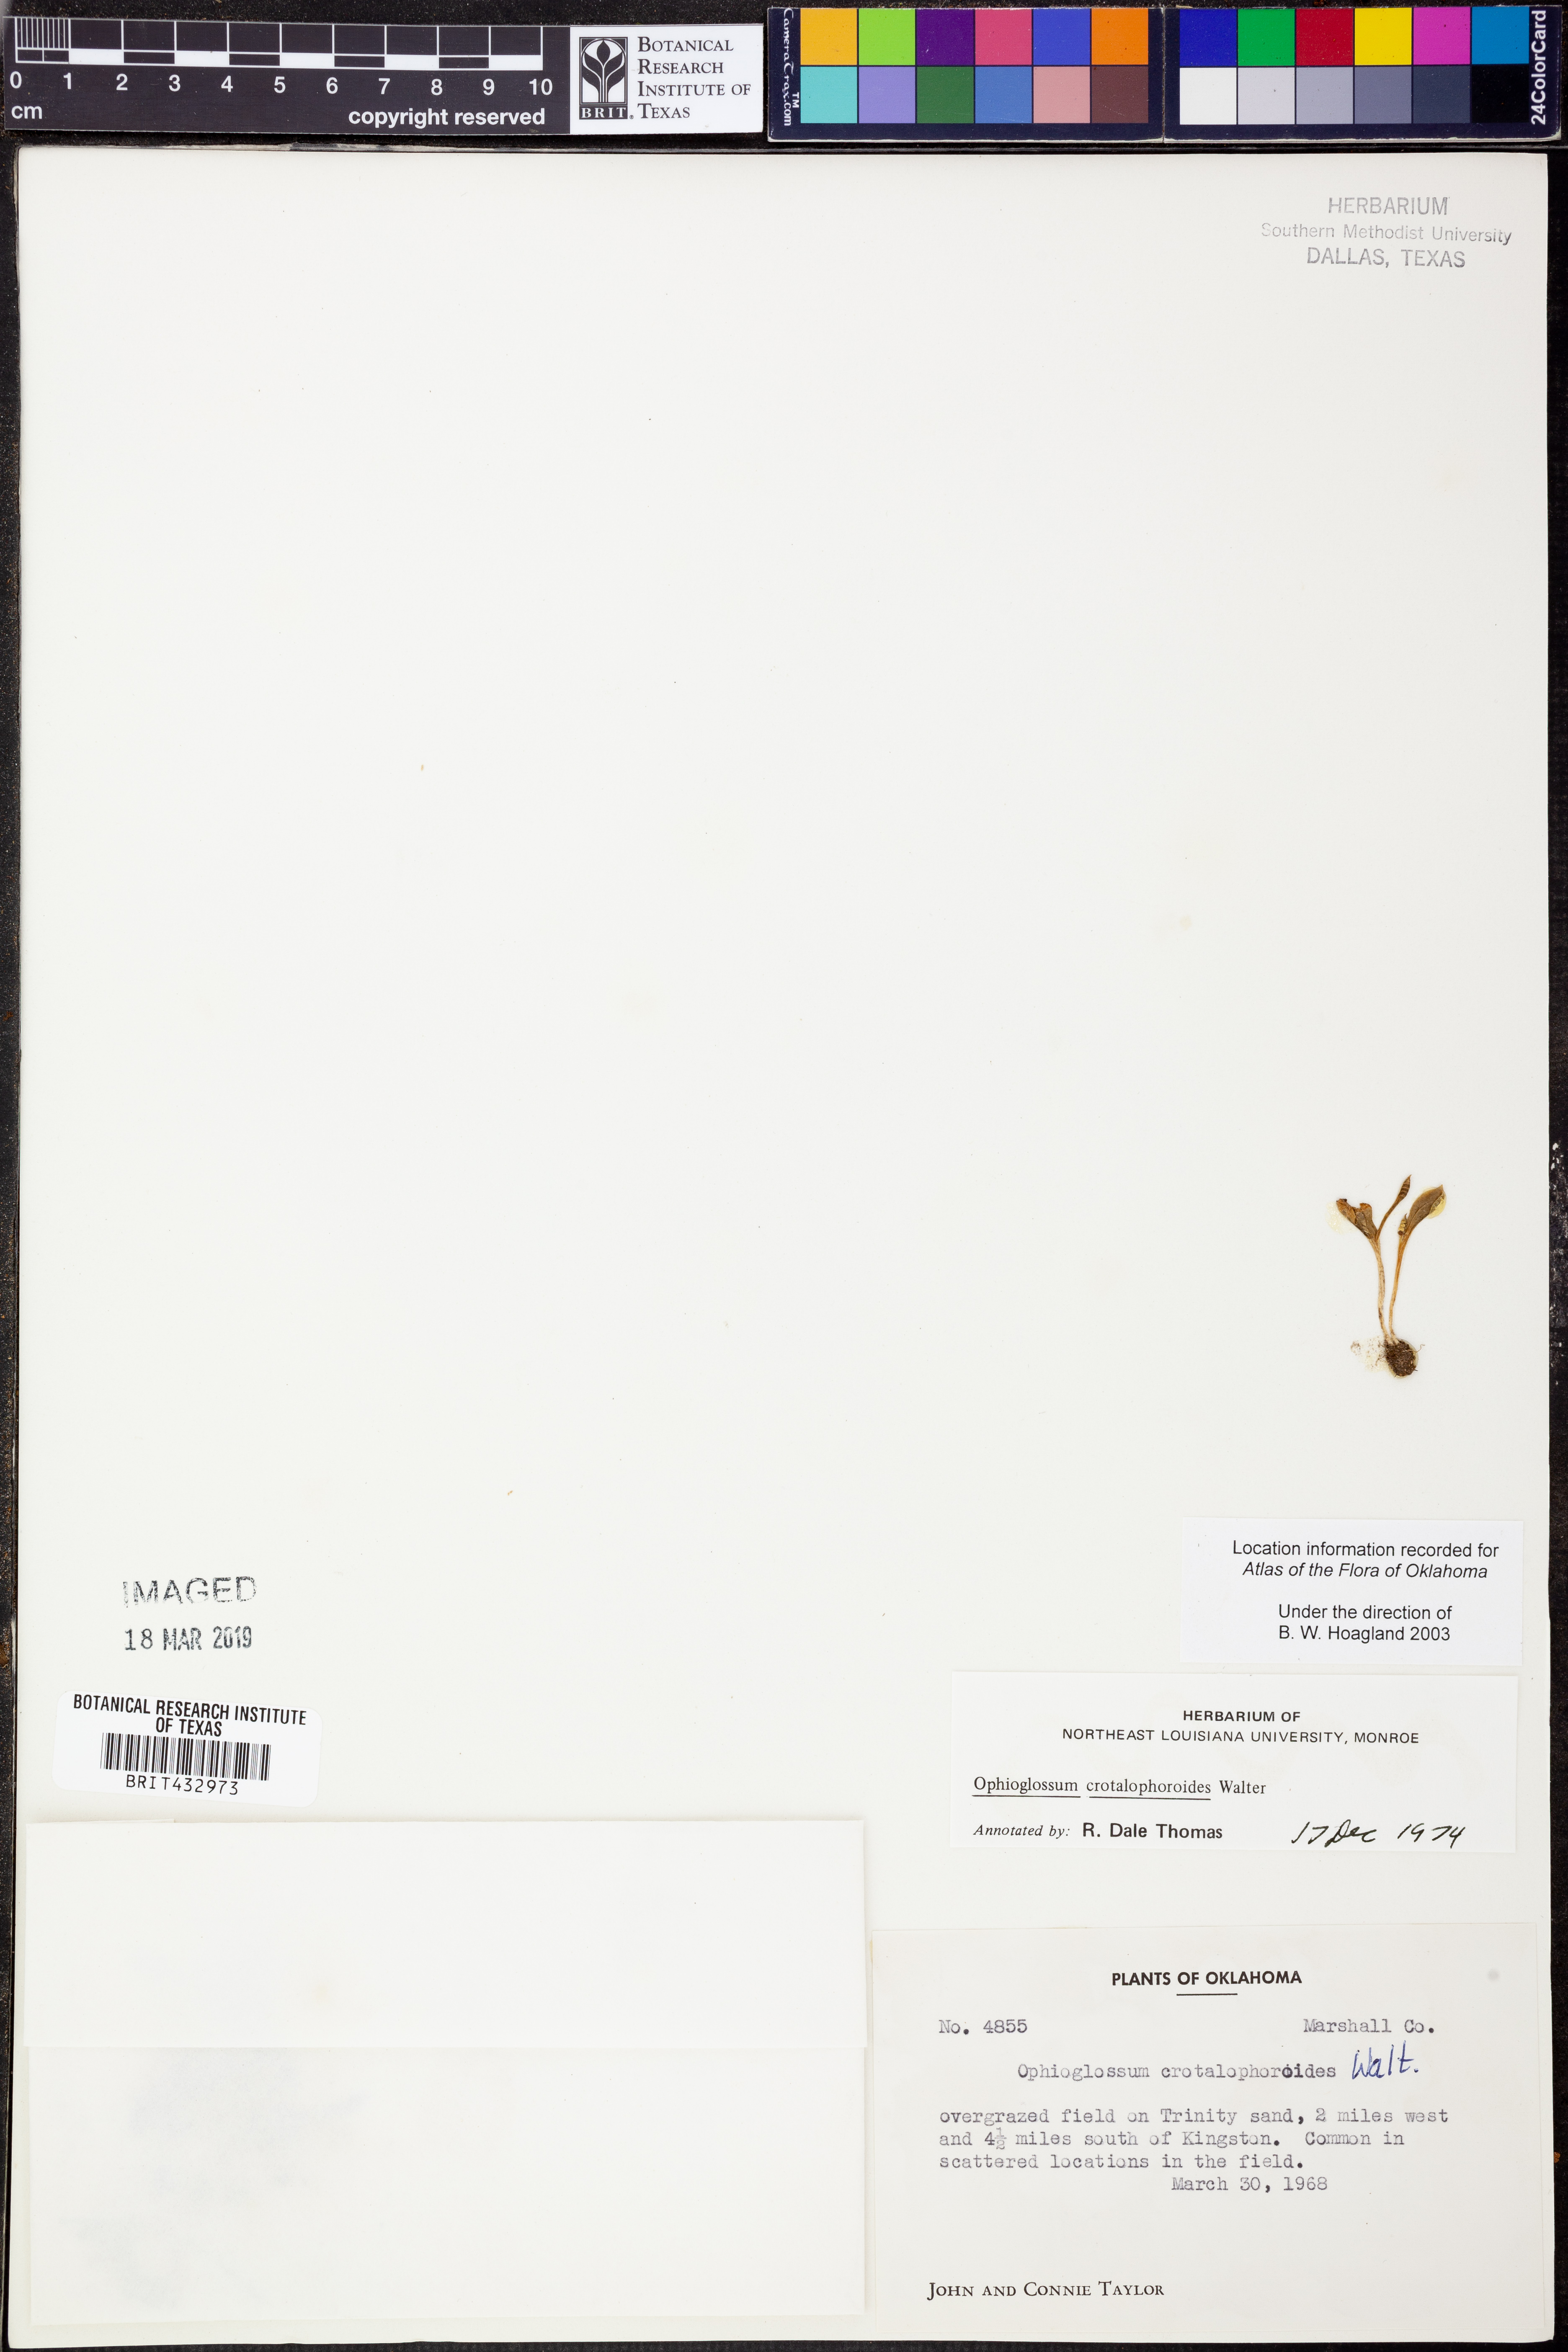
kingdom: Plantae
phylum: Tracheophyta
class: Polypodiopsida
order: Ophioglossales
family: Ophioglossaceae
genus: Ophioglossum
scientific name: Ophioglossum crotalophoroides
